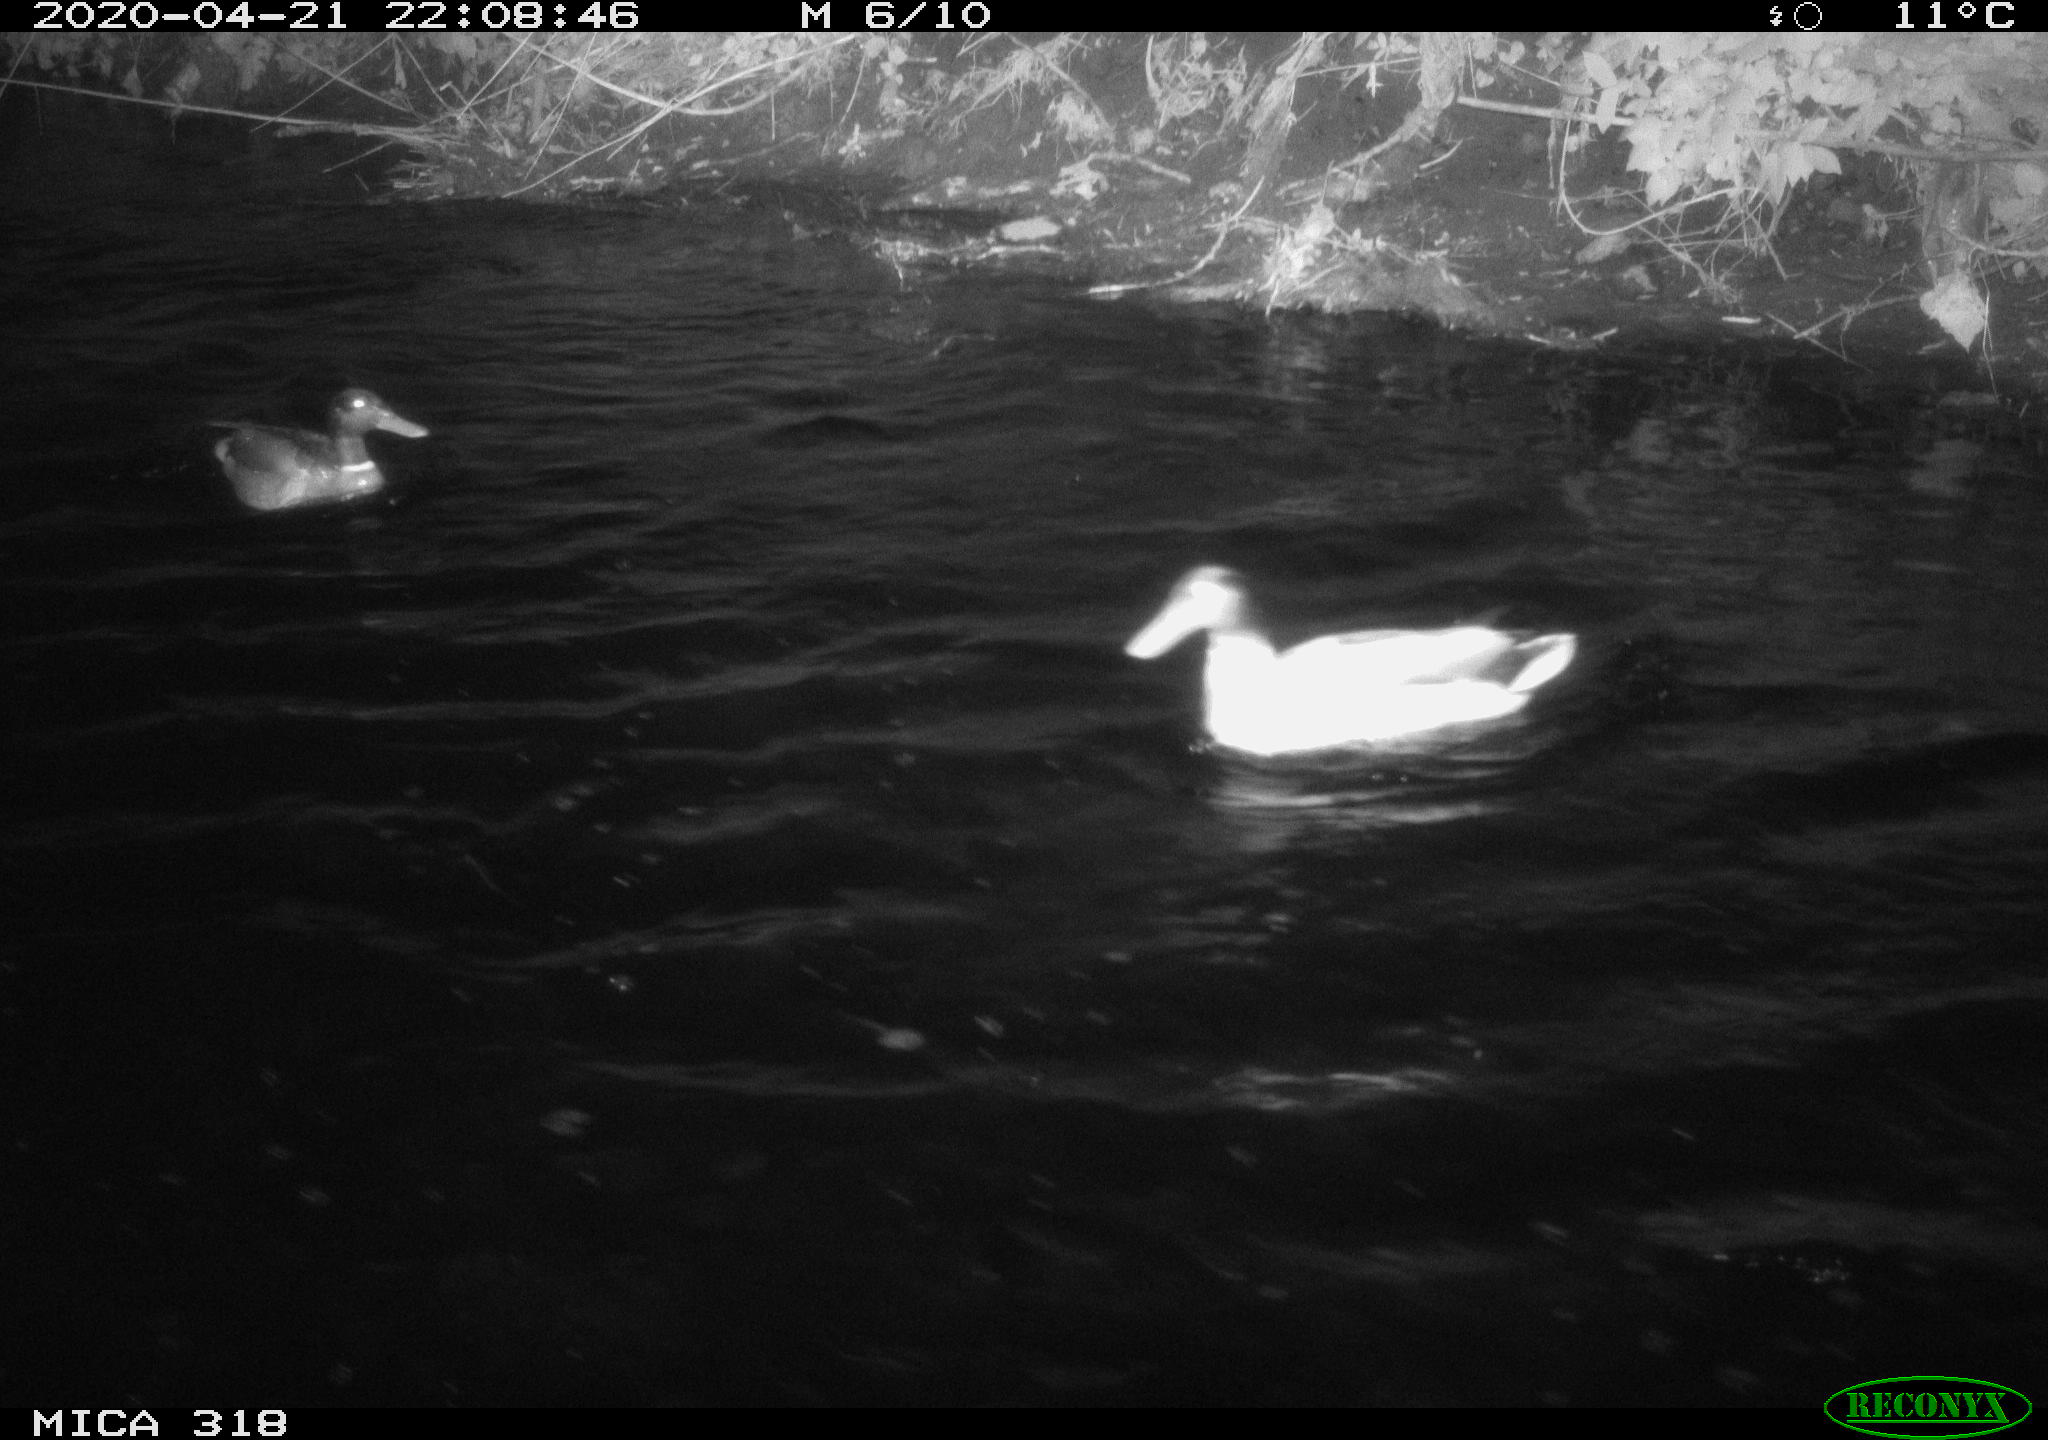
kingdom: Animalia
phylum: Chordata
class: Aves
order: Anseriformes
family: Anatidae
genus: Anas
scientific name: Anas platyrhynchos
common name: Mallard
